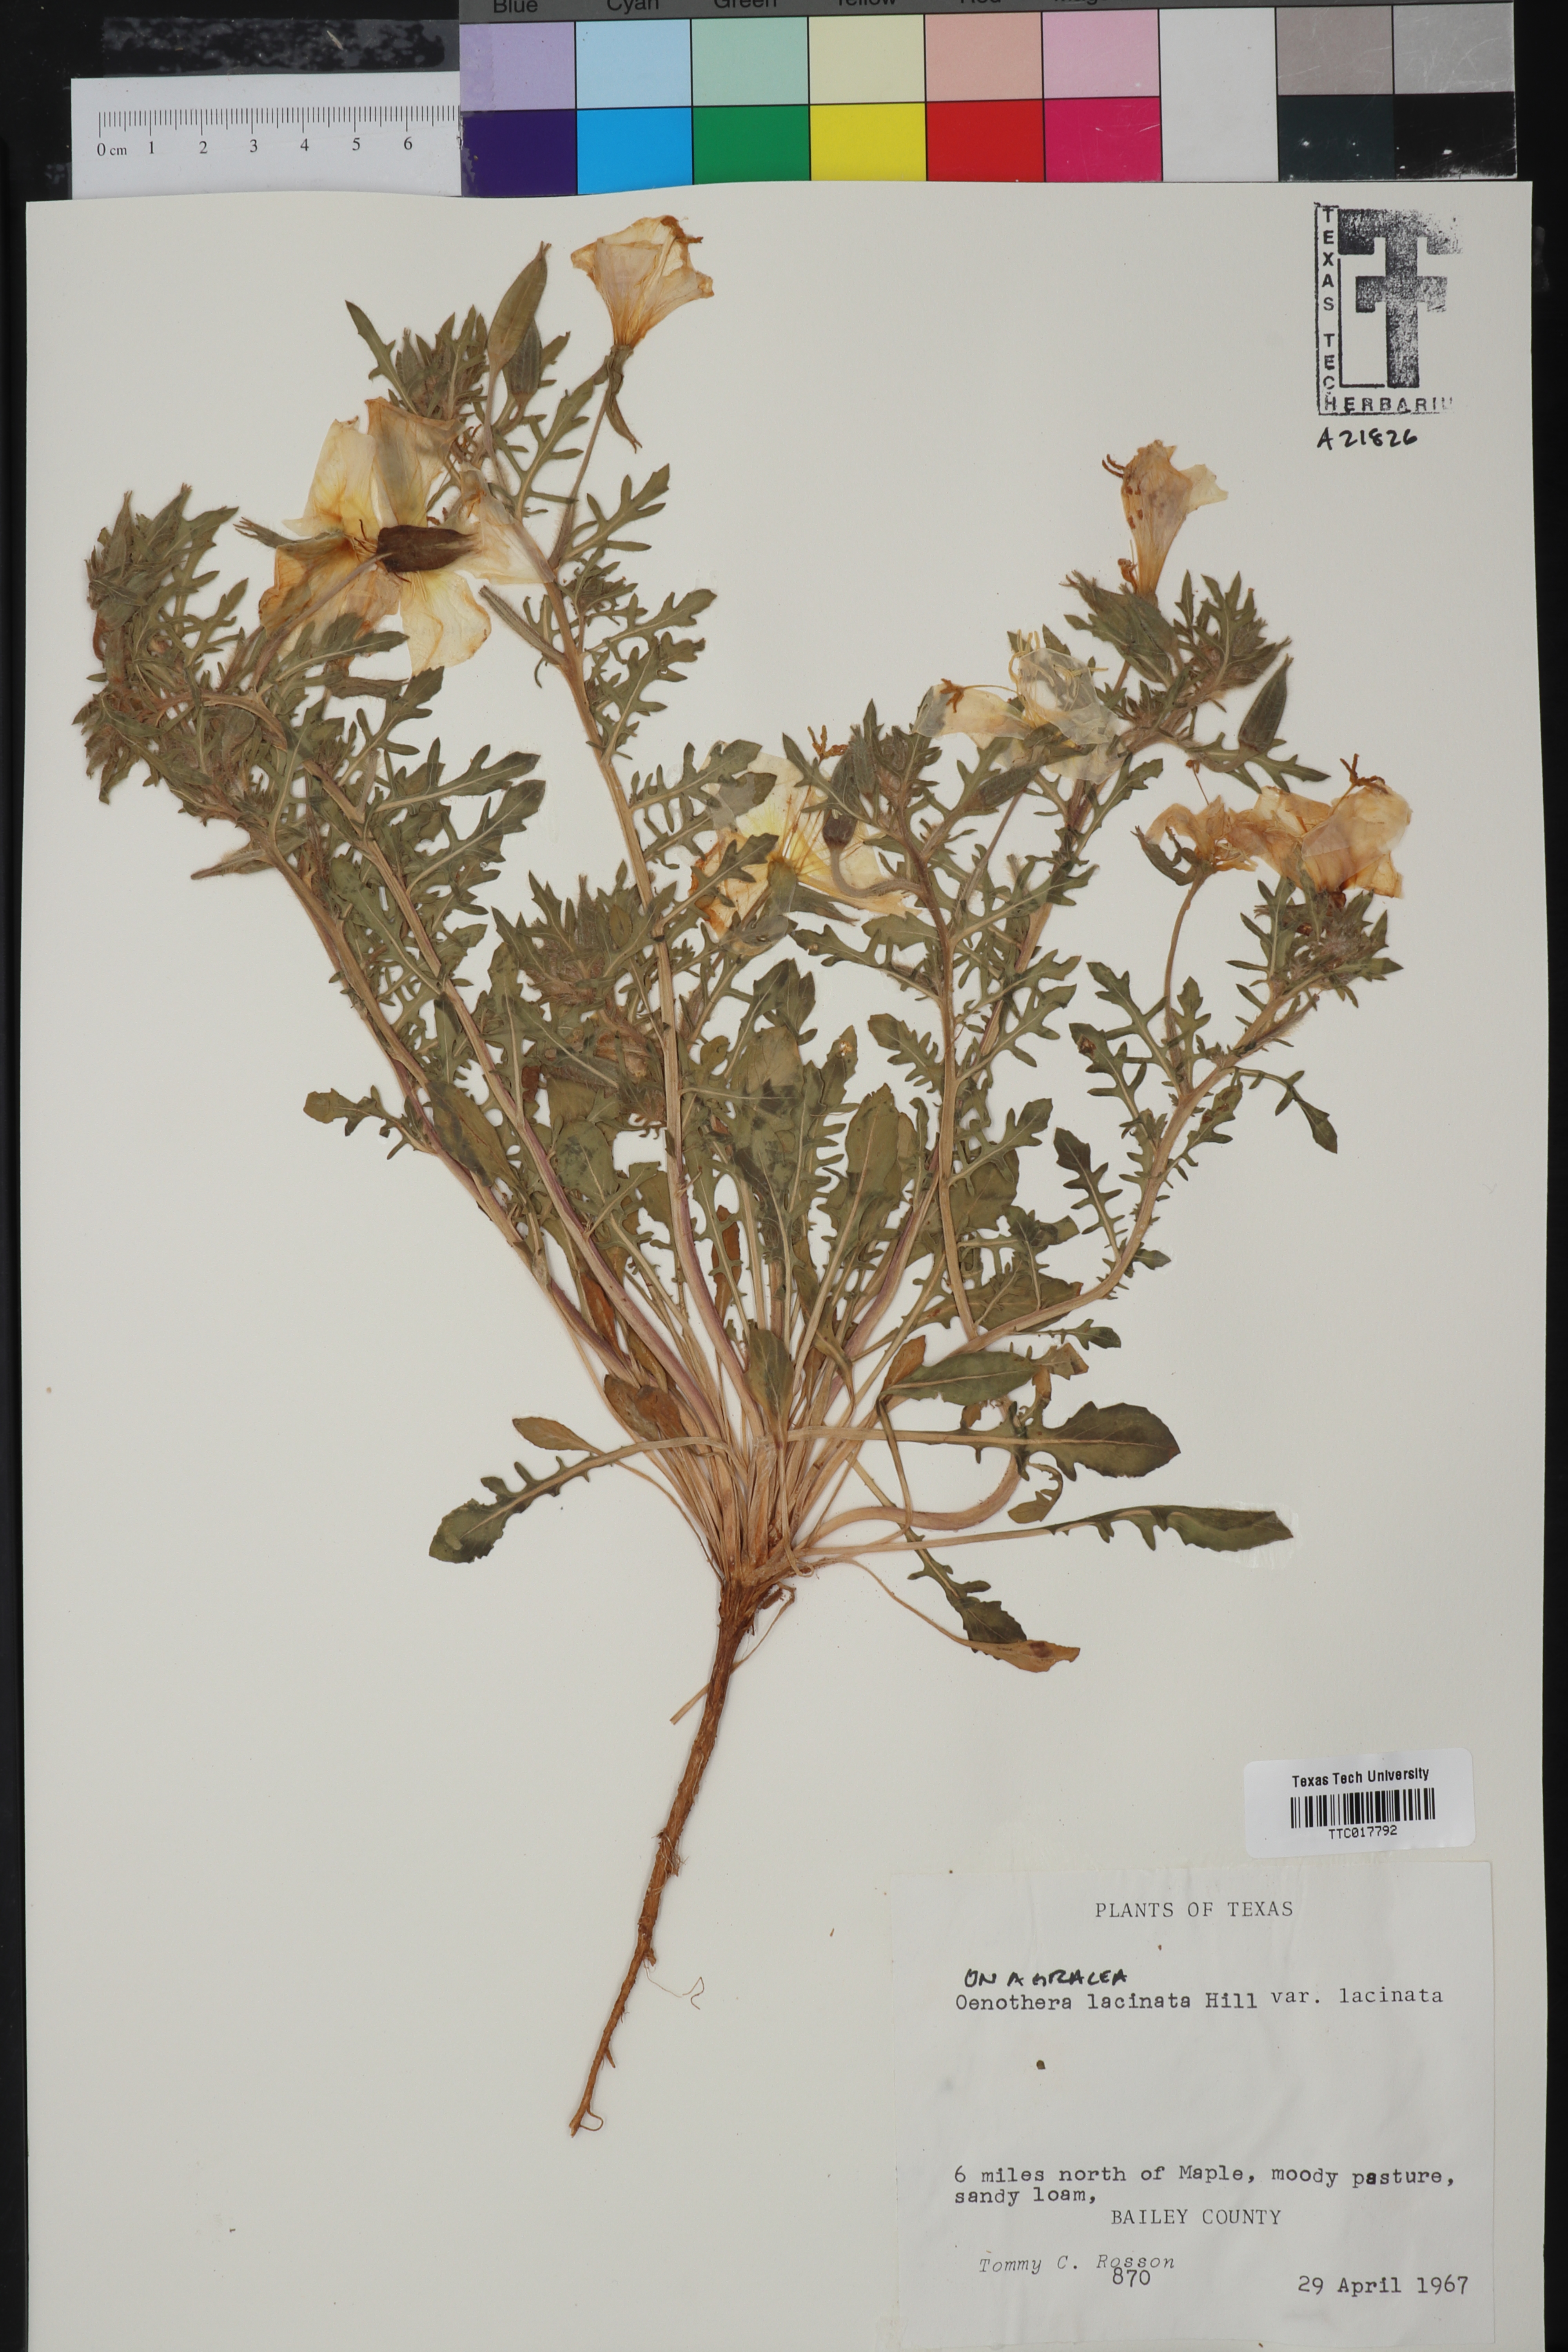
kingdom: Plantae
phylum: Tracheophyta
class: Magnoliopsida
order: Myrtales
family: Onagraceae
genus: Oenothera
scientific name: Oenothera laciniata
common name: Cut-leaved evening-primrose
